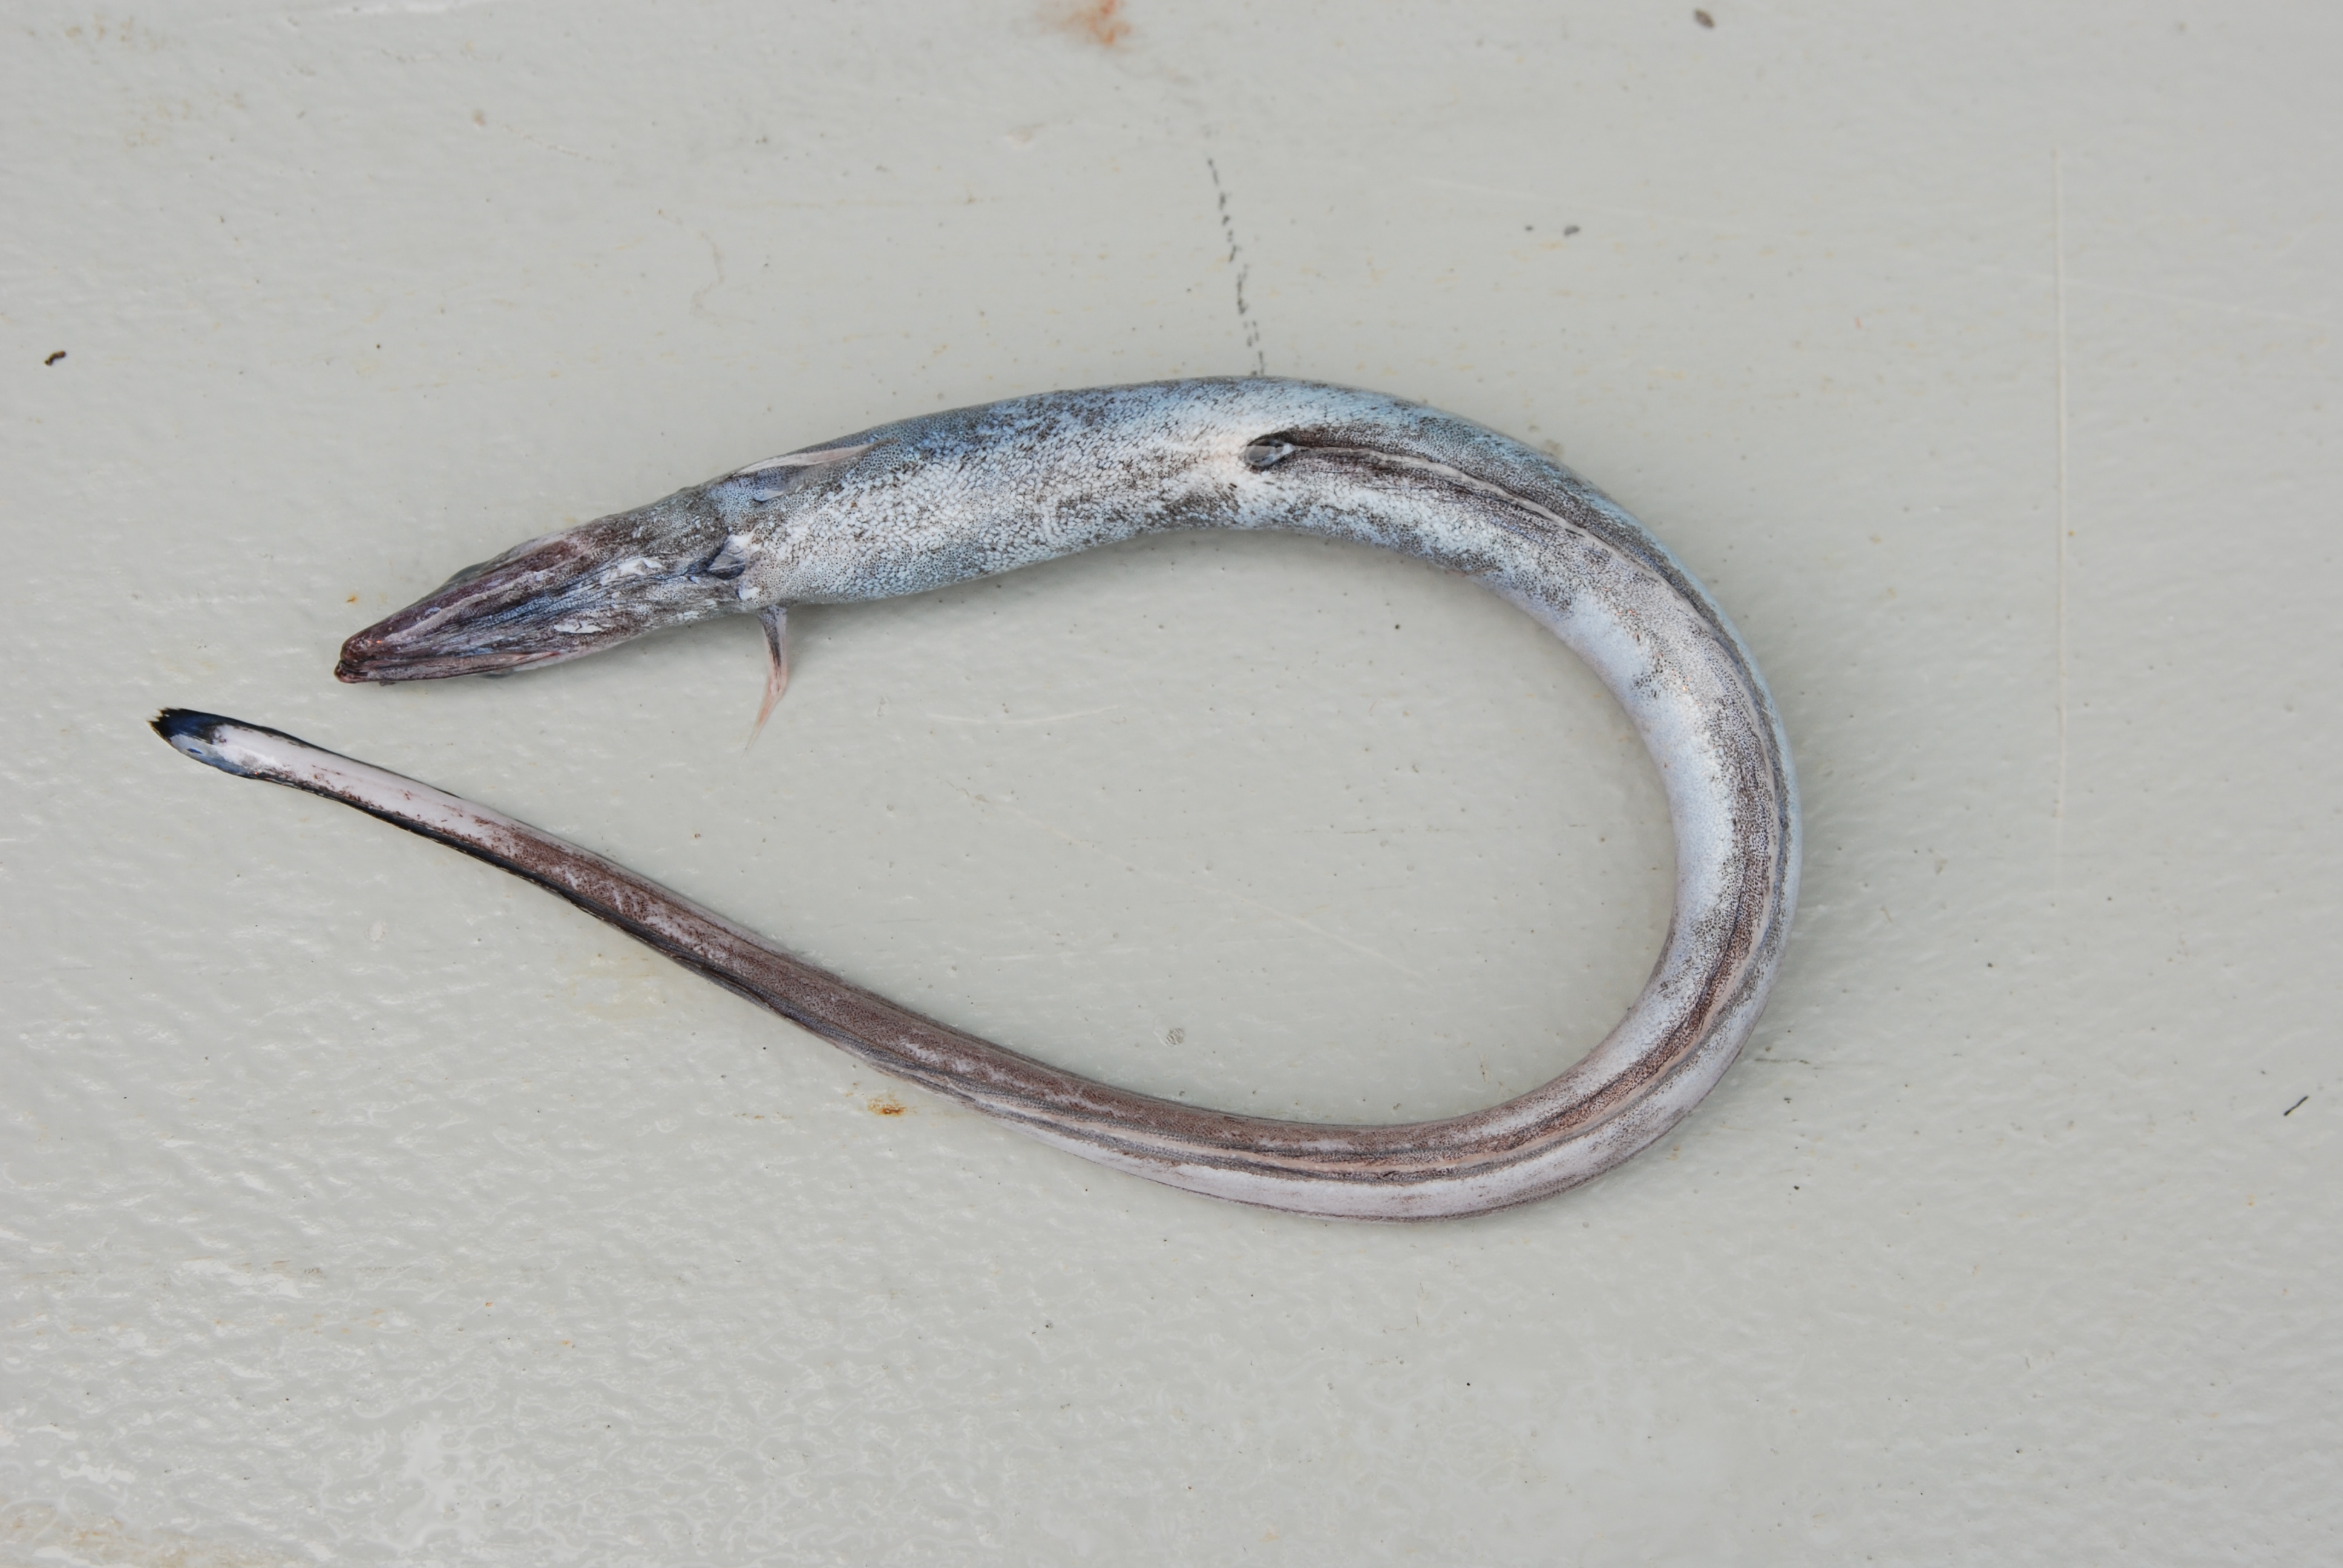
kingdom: Animalia
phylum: Chordata
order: Anguilliformes
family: Synaphobranchidae
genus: Synaphobranchus
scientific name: Synaphobranchus affinis
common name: Gilbert's synaphobranchid eel
